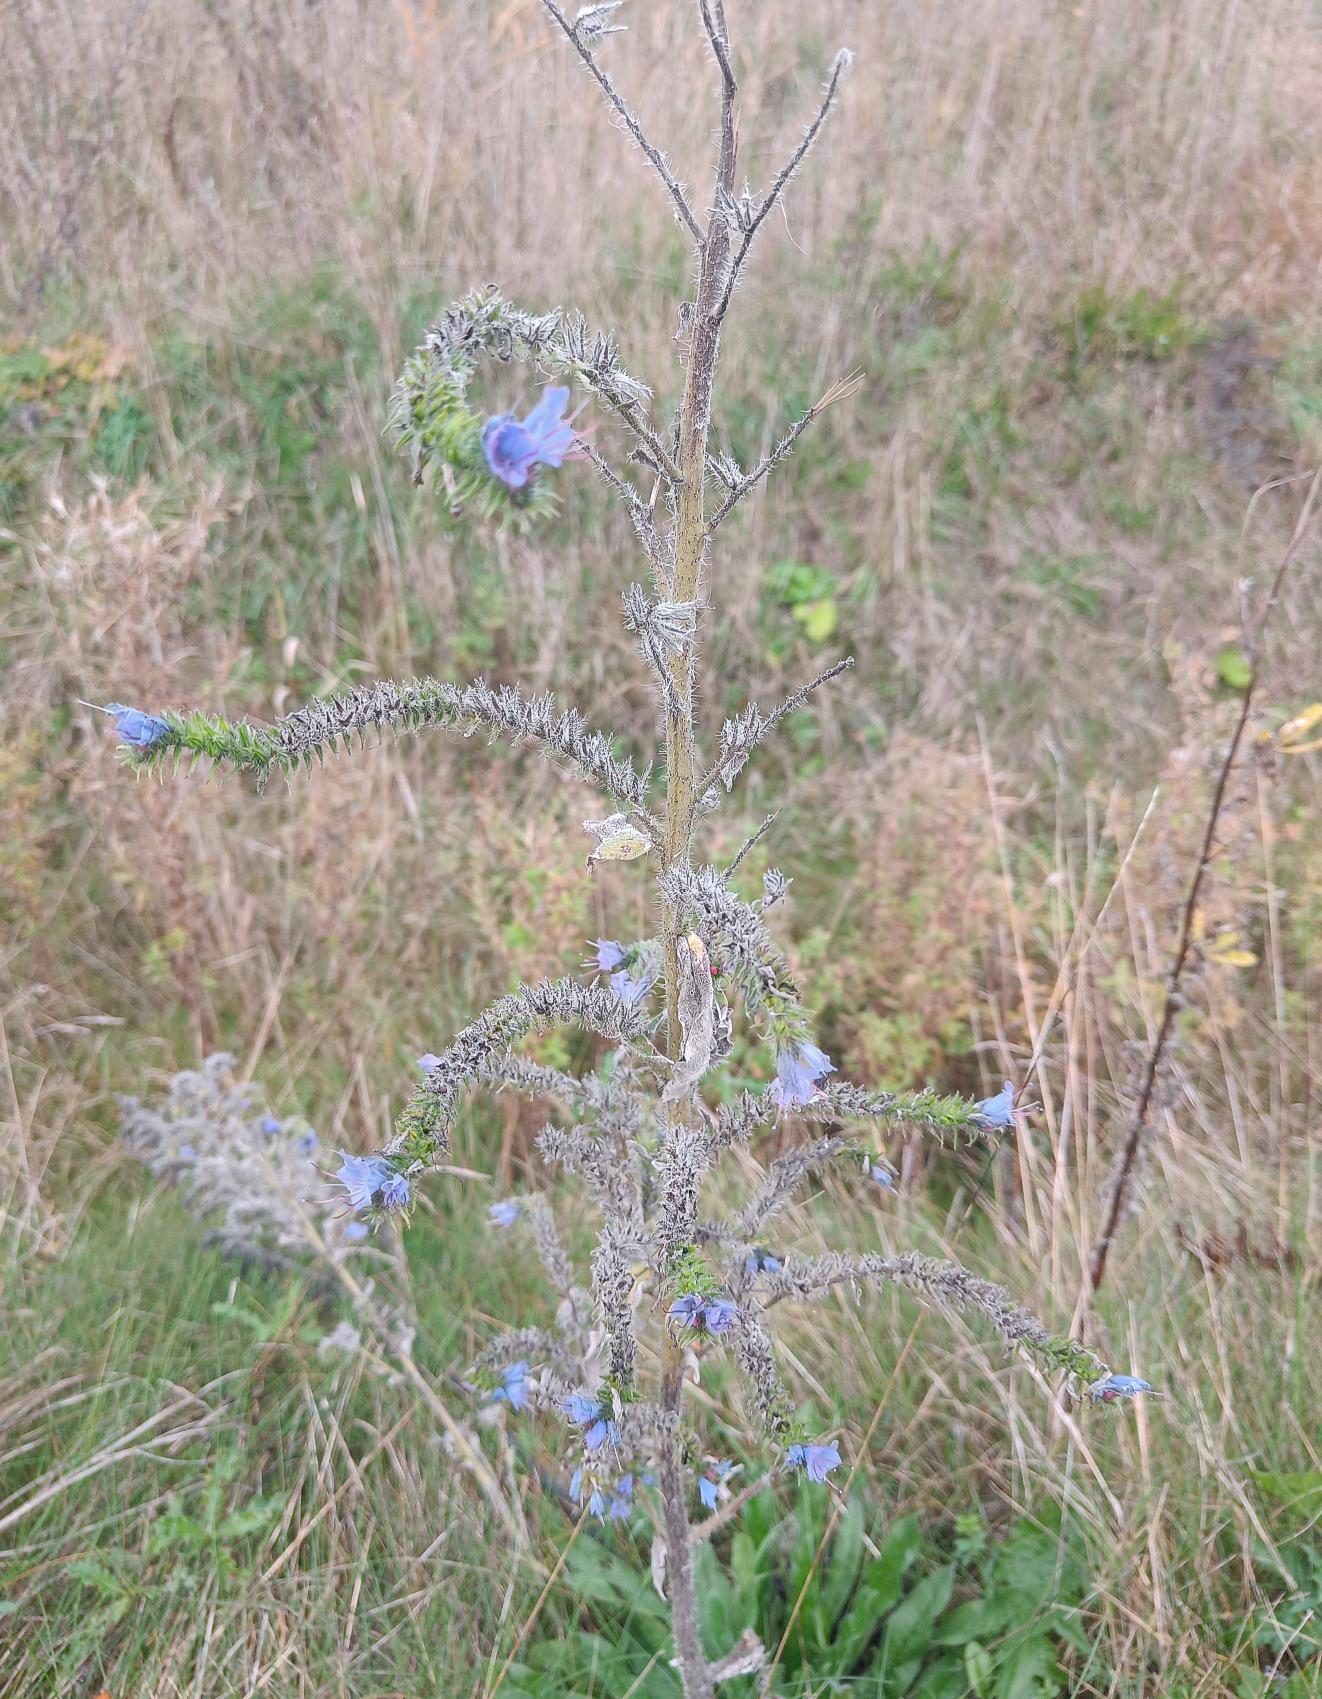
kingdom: Plantae
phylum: Tracheophyta
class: Magnoliopsida
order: Boraginales
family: Boraginaceae
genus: Echium
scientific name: Echium vulgare
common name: Slangehoved
